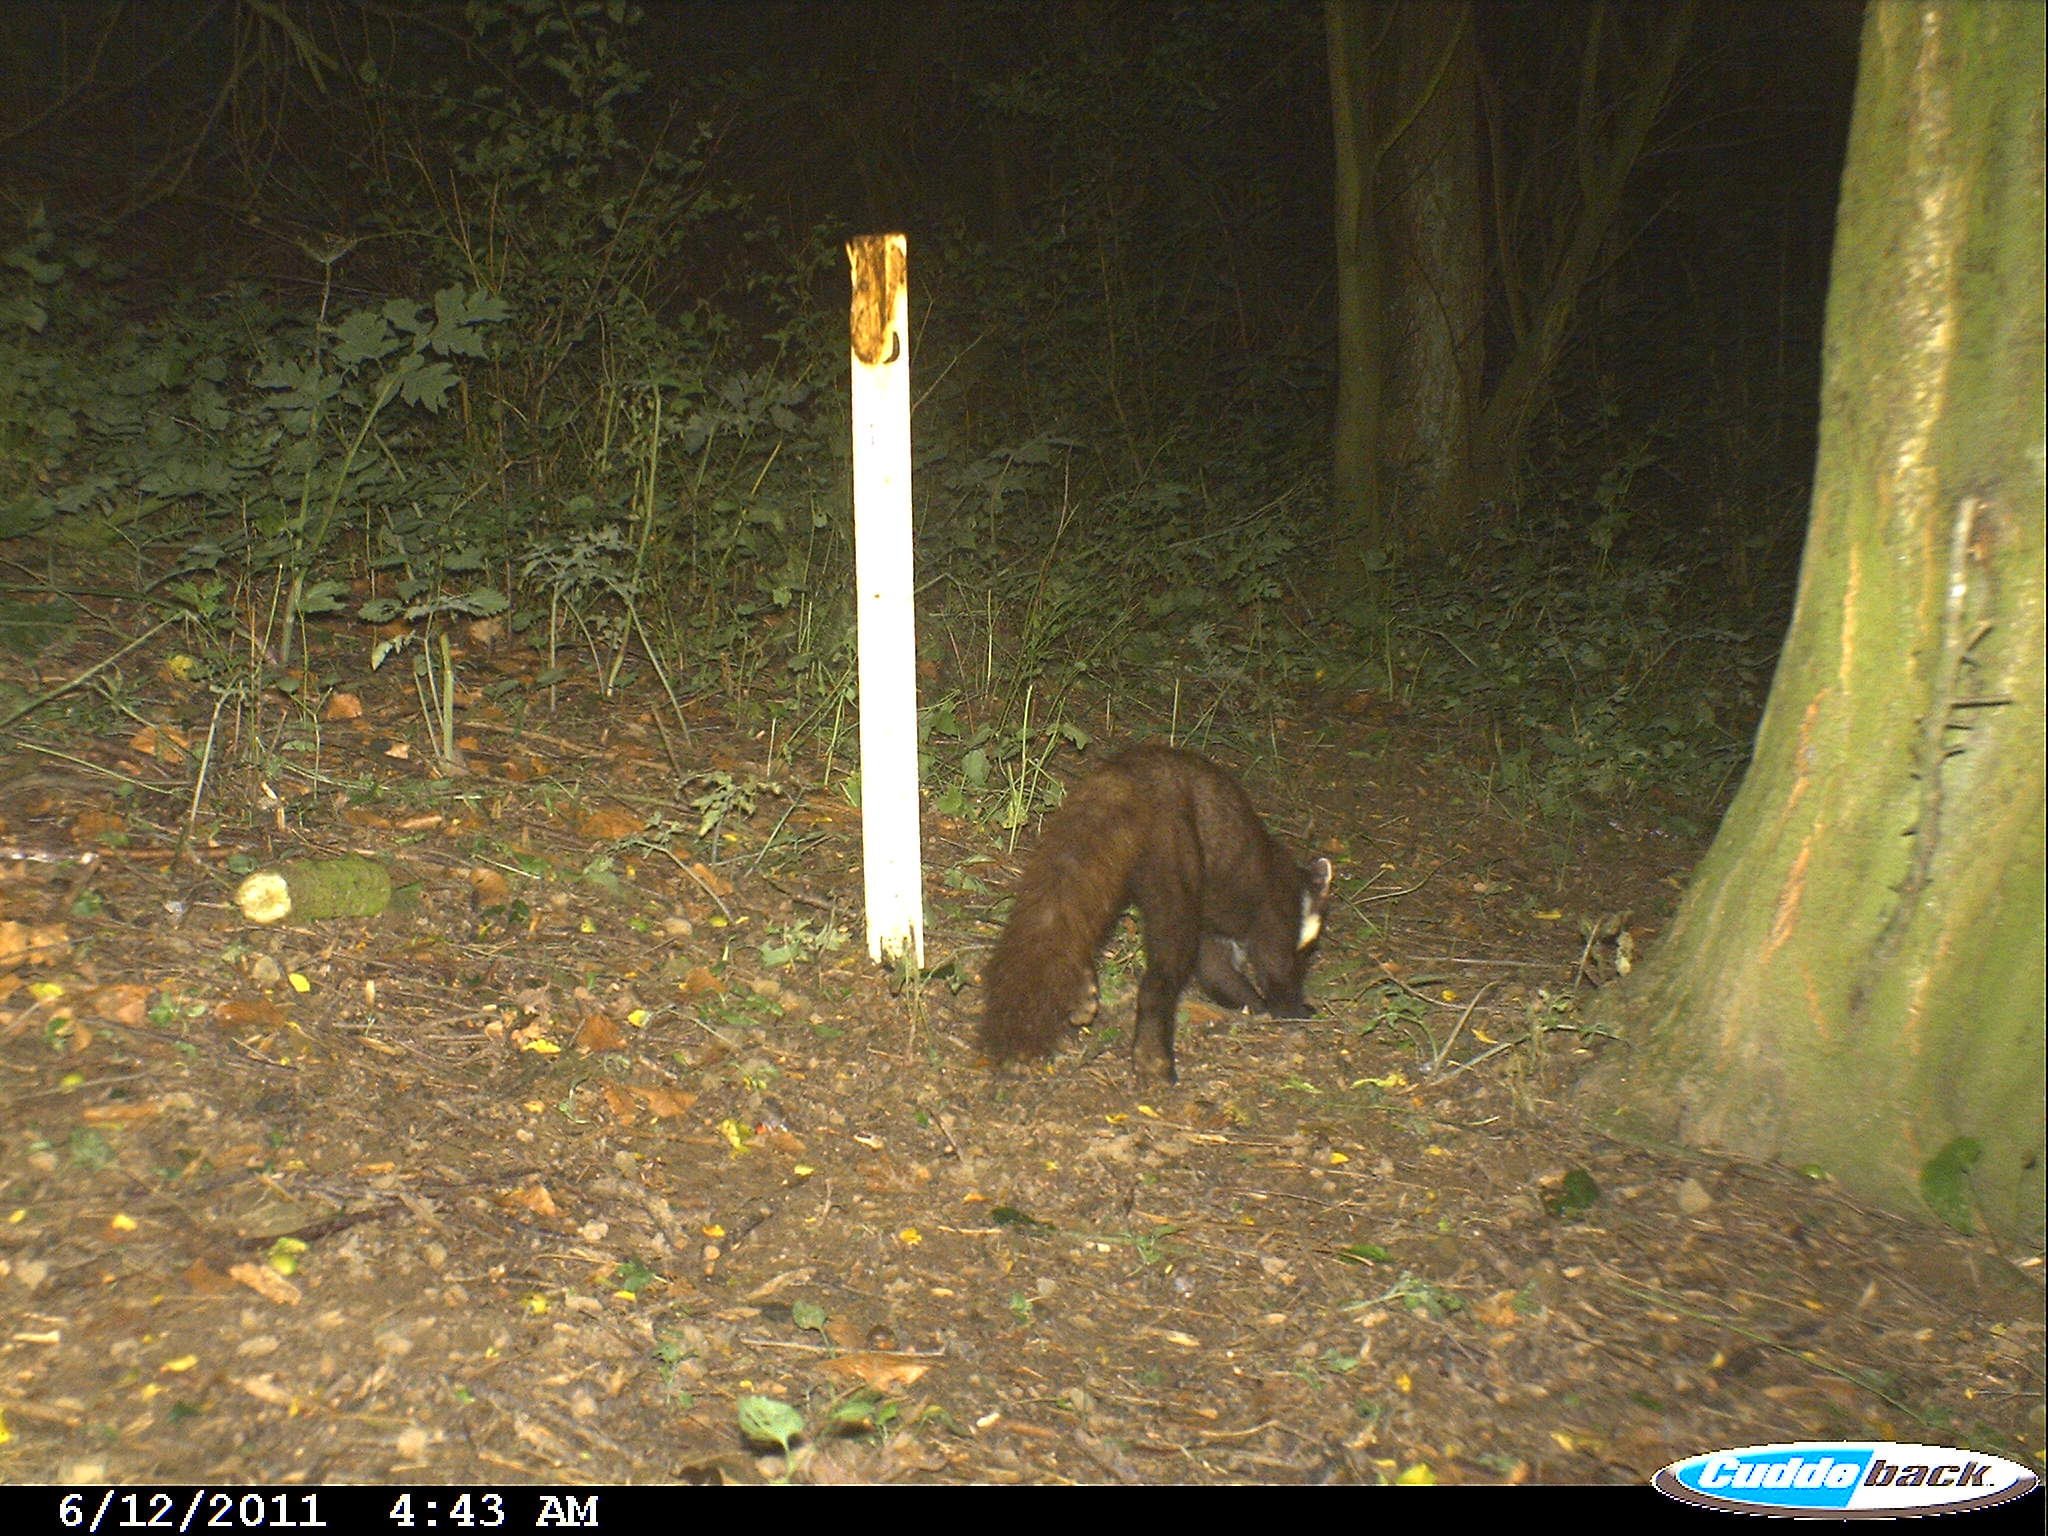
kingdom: Animalia
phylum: Chordata
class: Mammalia
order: Carnivora
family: Mustelidae
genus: Martes
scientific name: Martes martes
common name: European pine marten
